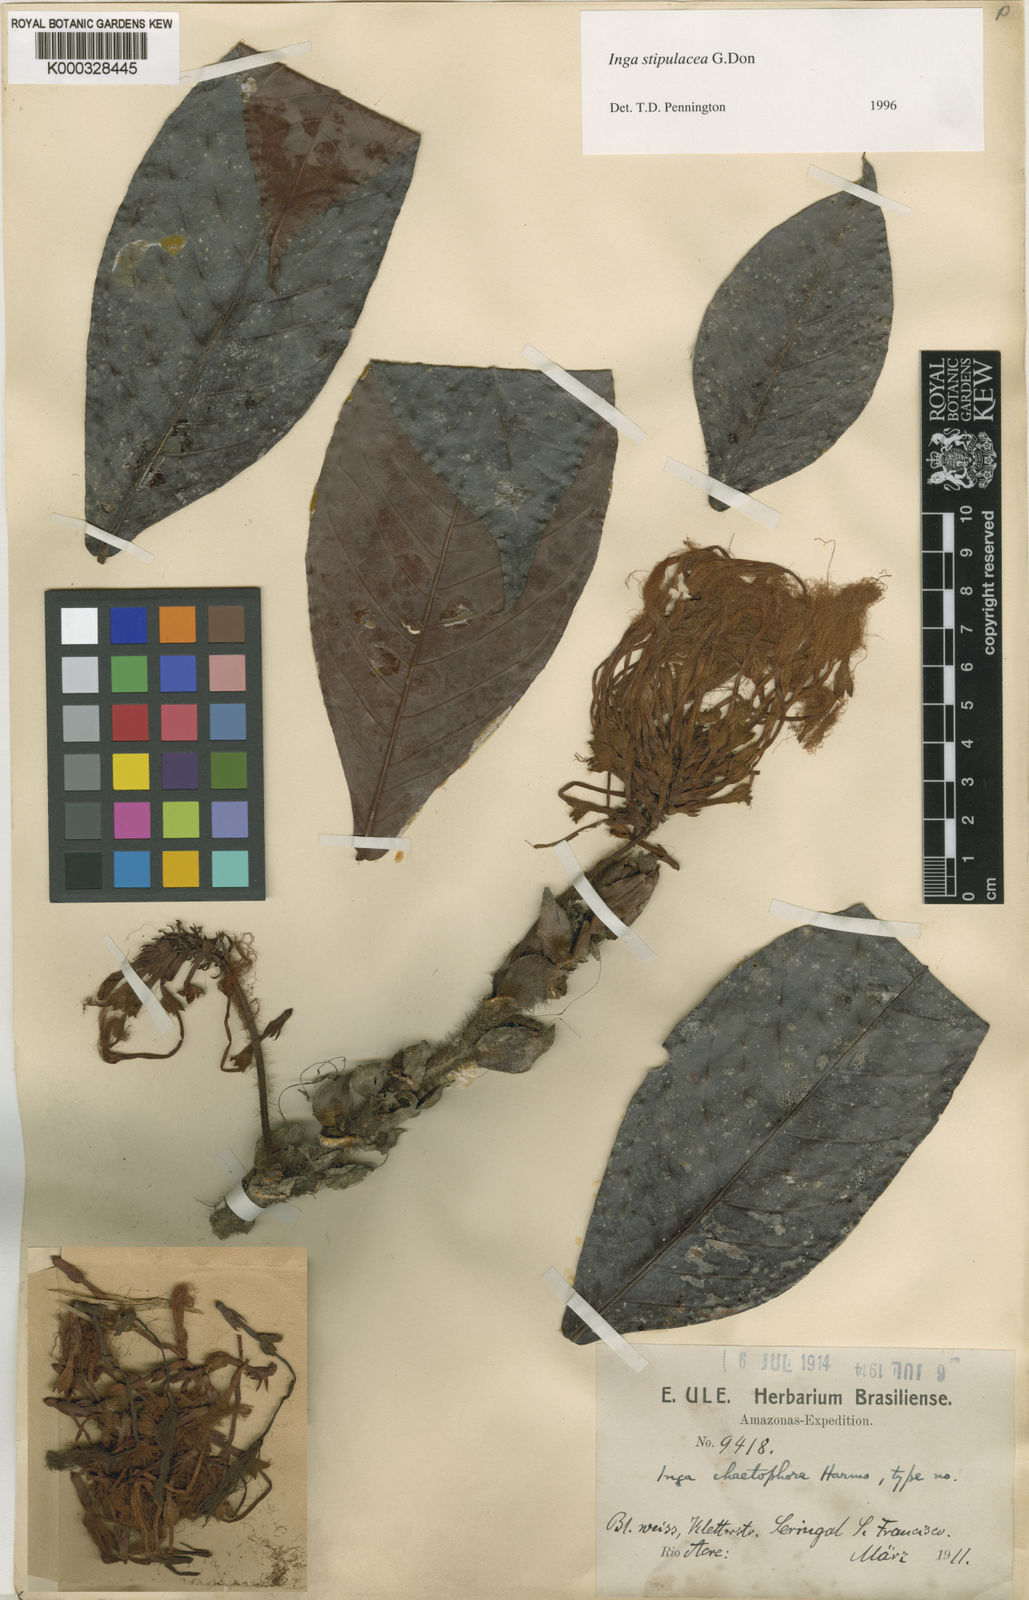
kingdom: Plantae
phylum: Tracheophyta
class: Magnoliopsida
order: Fabales
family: Fabaceae
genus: Inga
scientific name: Inga stipulacea
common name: Stipulate inga
